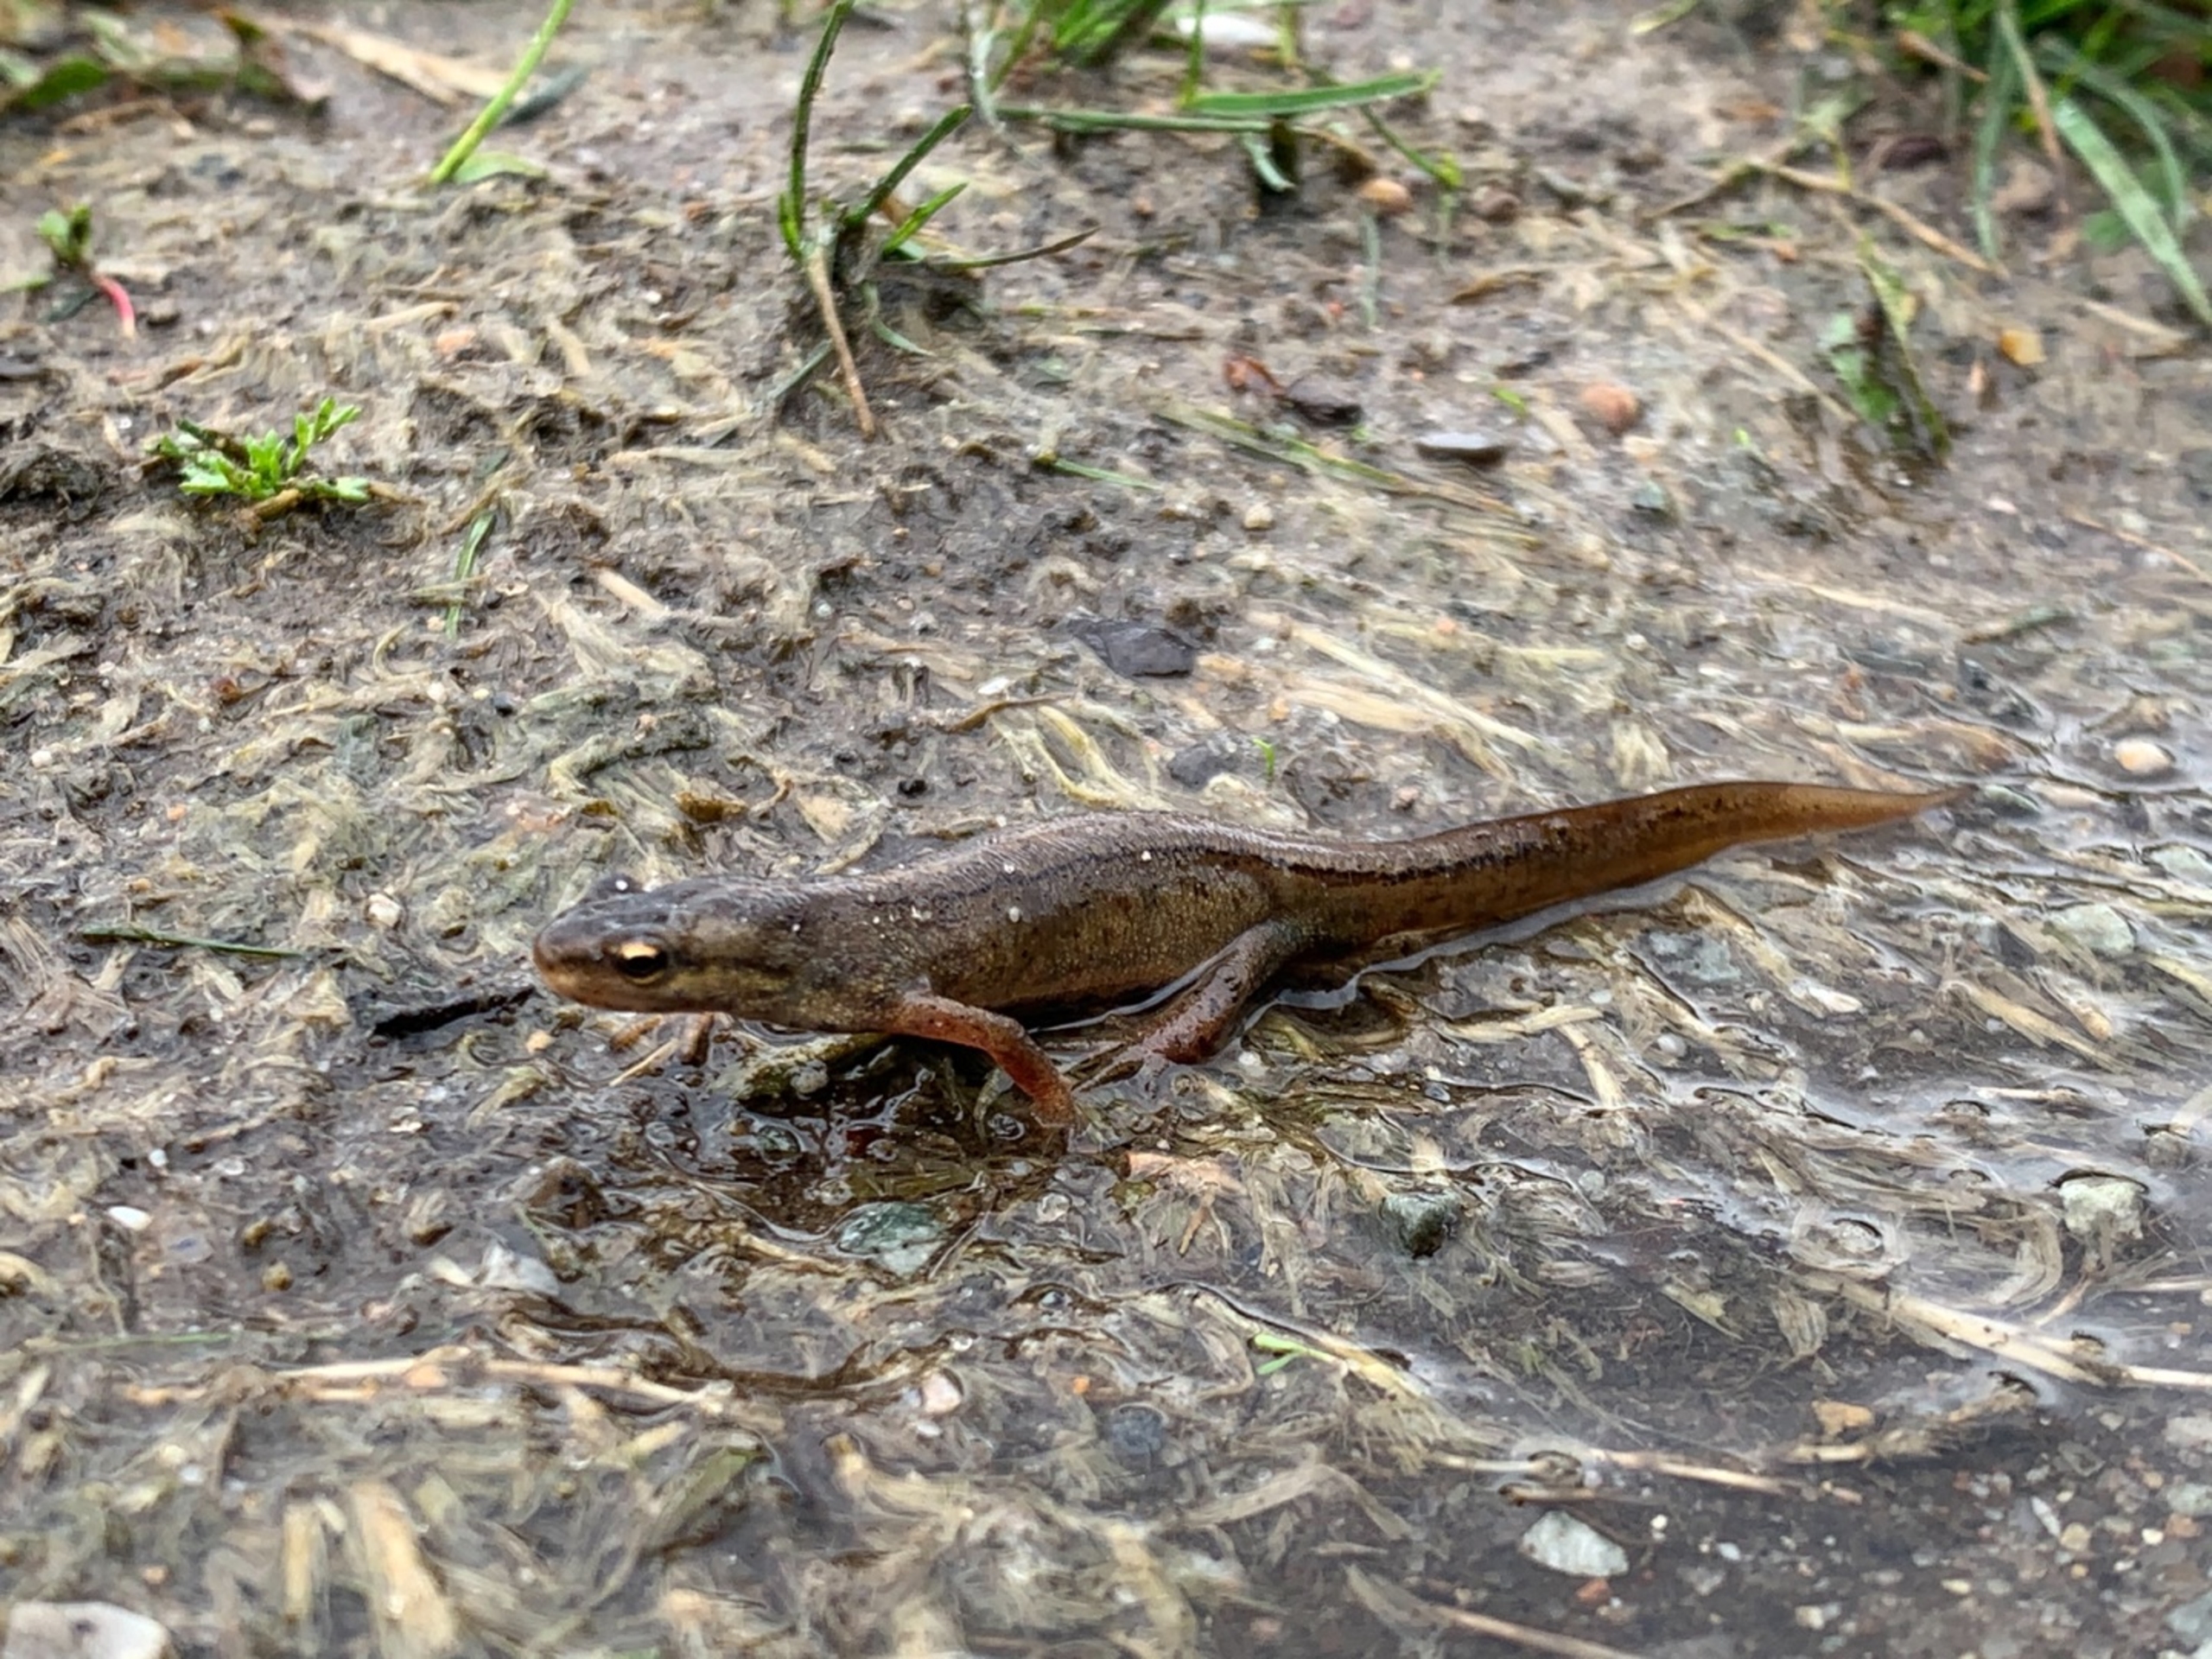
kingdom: Animalia
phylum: Chordata
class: Amphibia
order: Caudata
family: Salamandridae
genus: Lissotriton
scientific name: Lissotriton vulgaris
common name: Lille vandsalamander
